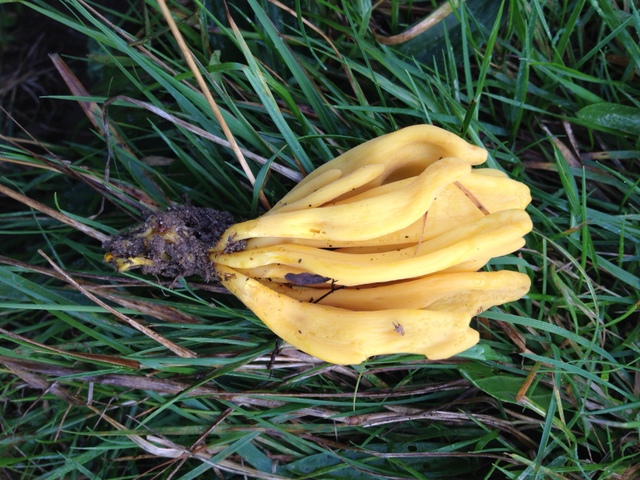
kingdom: Fungi
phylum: Basidiomycota
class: Agaricomycetes
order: Agaricales
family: Clavariaceae
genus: Clavulinopsis
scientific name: Clavulinopsis fusiformis
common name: tenformet køllesvamp
